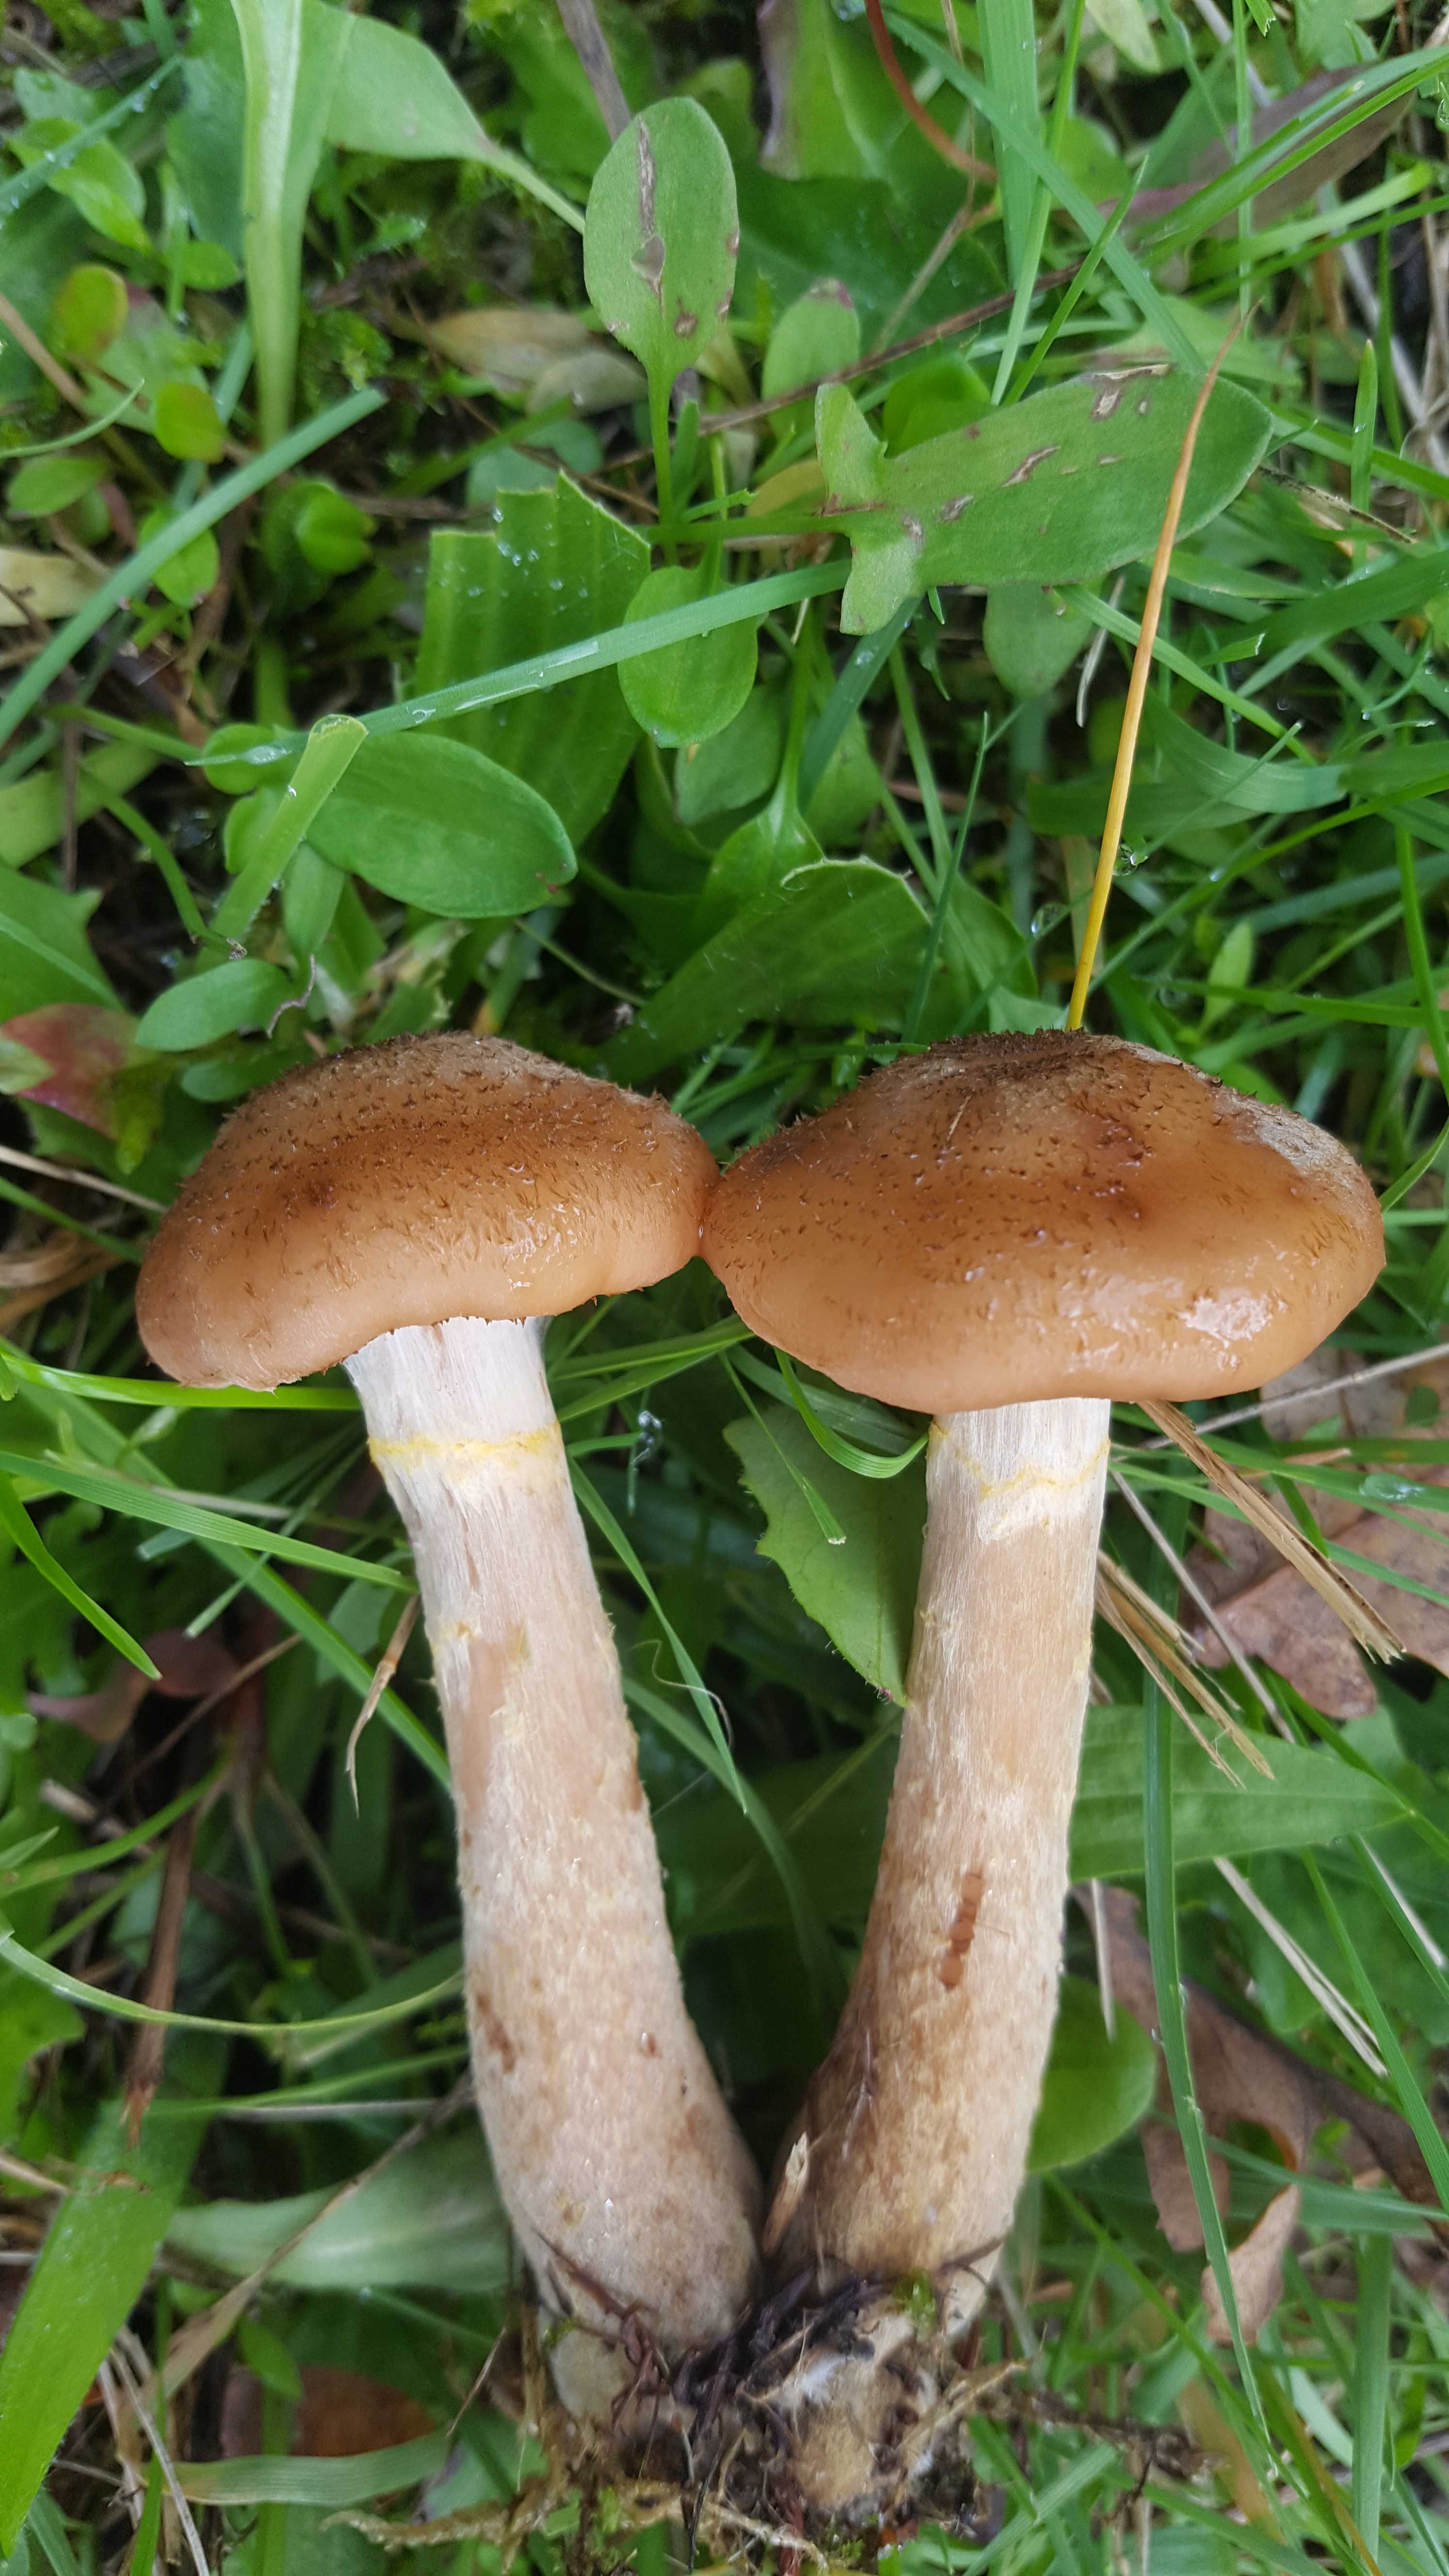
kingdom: Fungi
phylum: Basidiomycota
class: Agaricomycetes
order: Agaricales
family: Physalacriaceae
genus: Armillaria
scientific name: Armillaria lutea
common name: køllestokket honningsvamp
